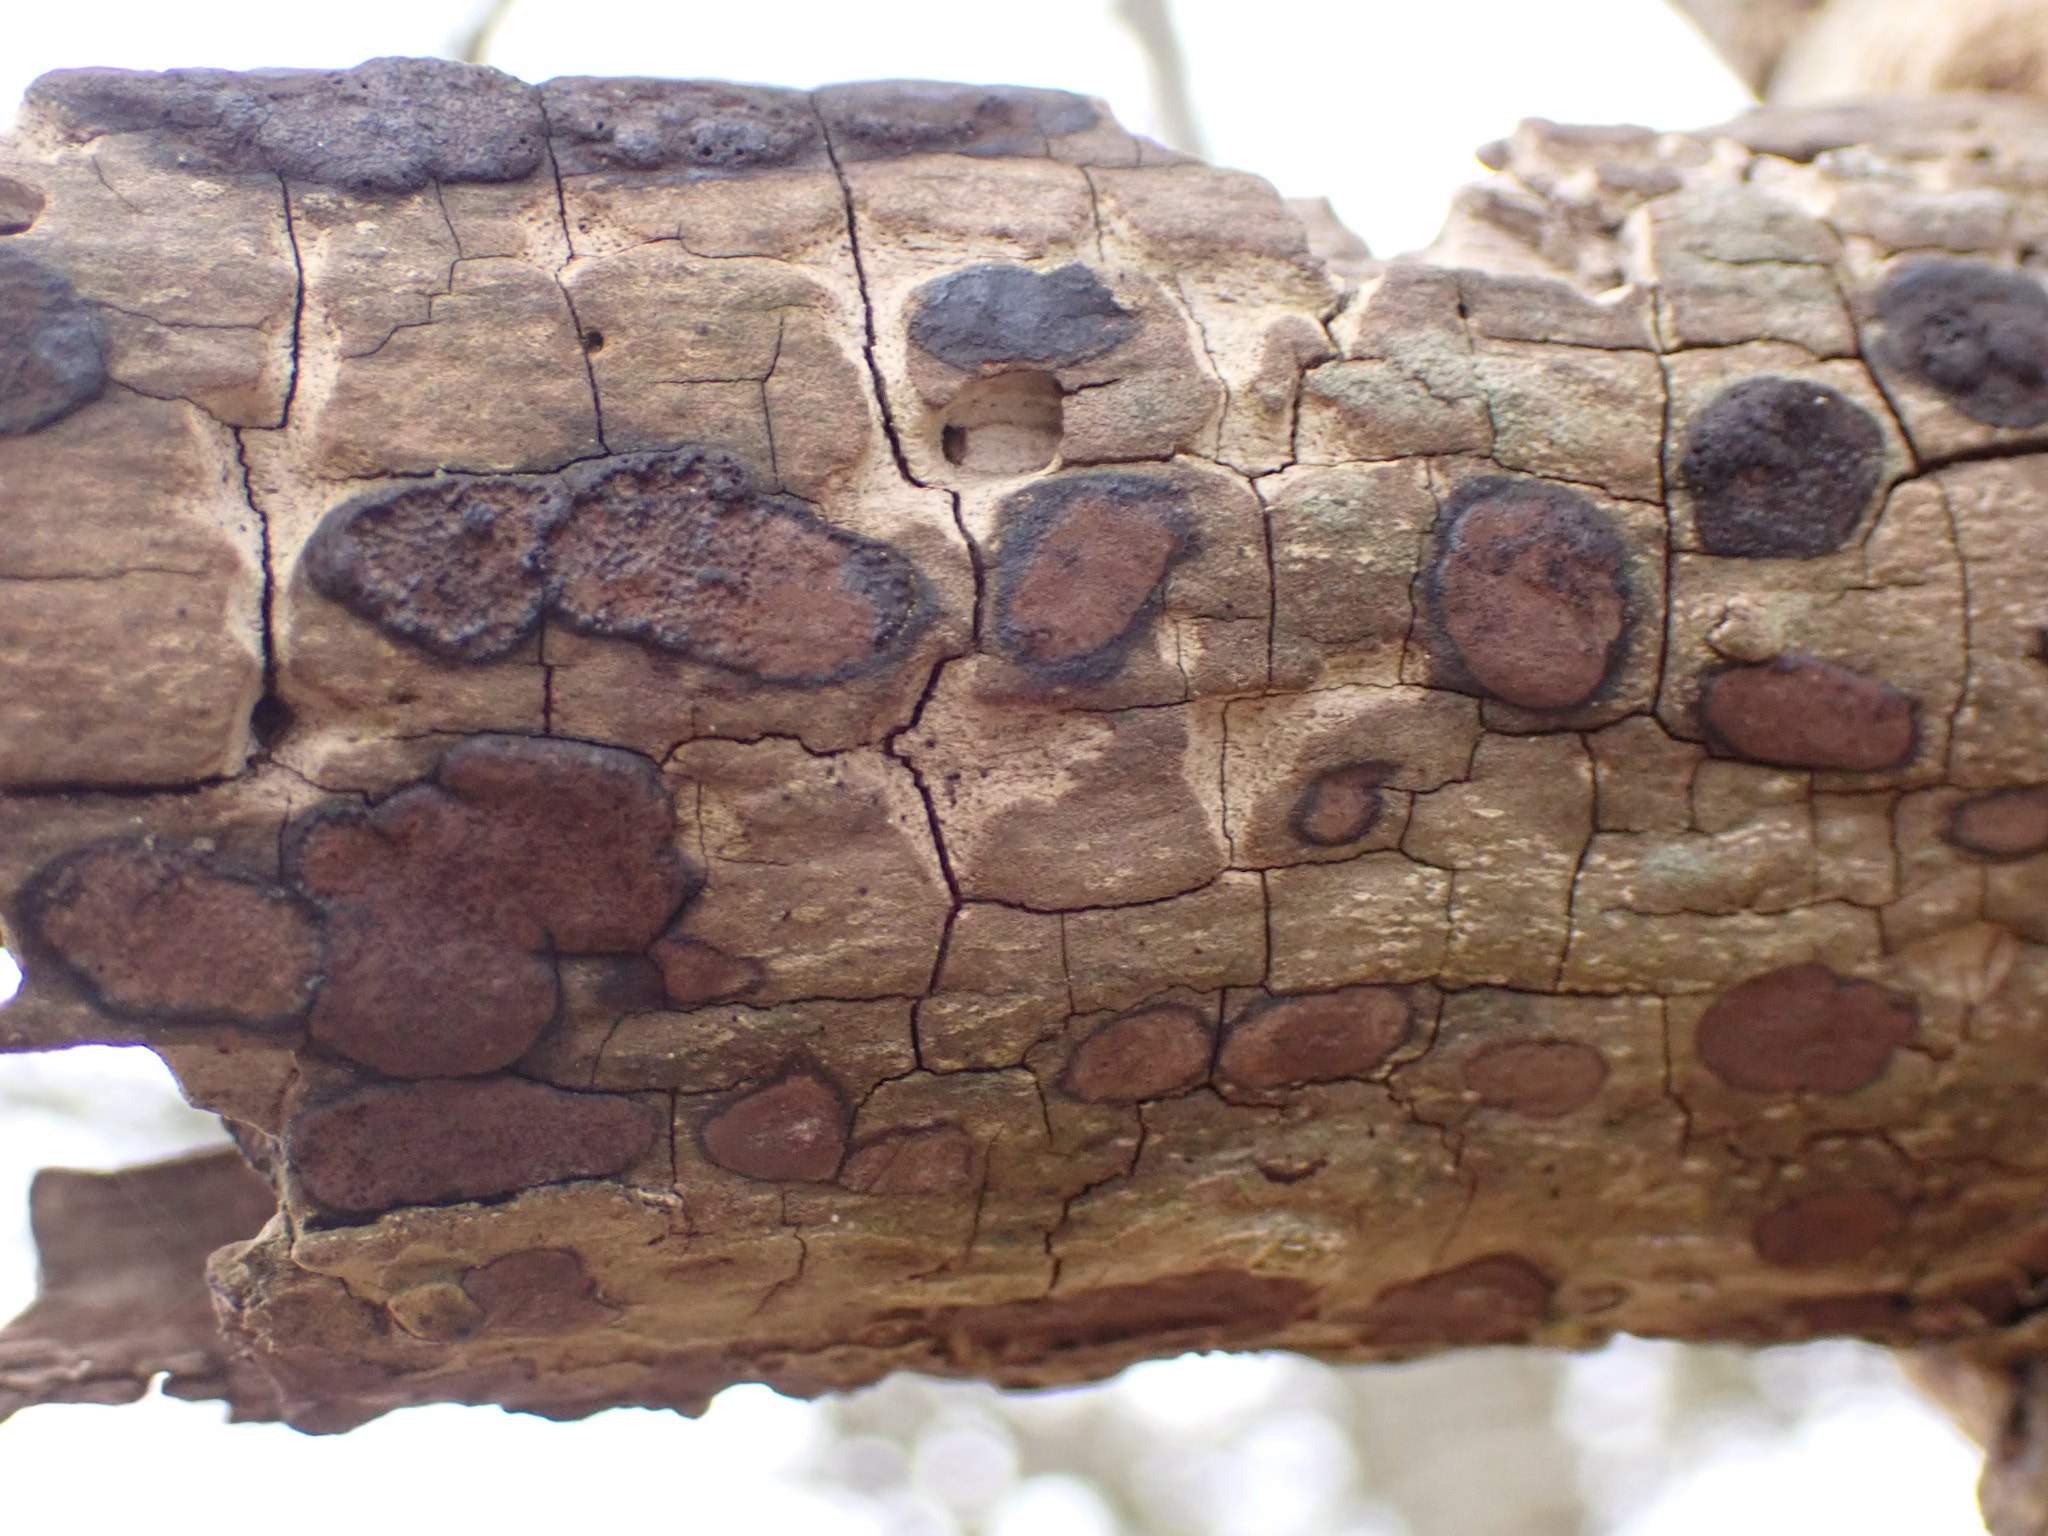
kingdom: Fungi
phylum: Ascomycota
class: Sordariomycetes
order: Xylariales
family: Hypoxylaceae
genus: Hypoxylon
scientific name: Hypoxylon petriniae
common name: nedsænket kulbær
